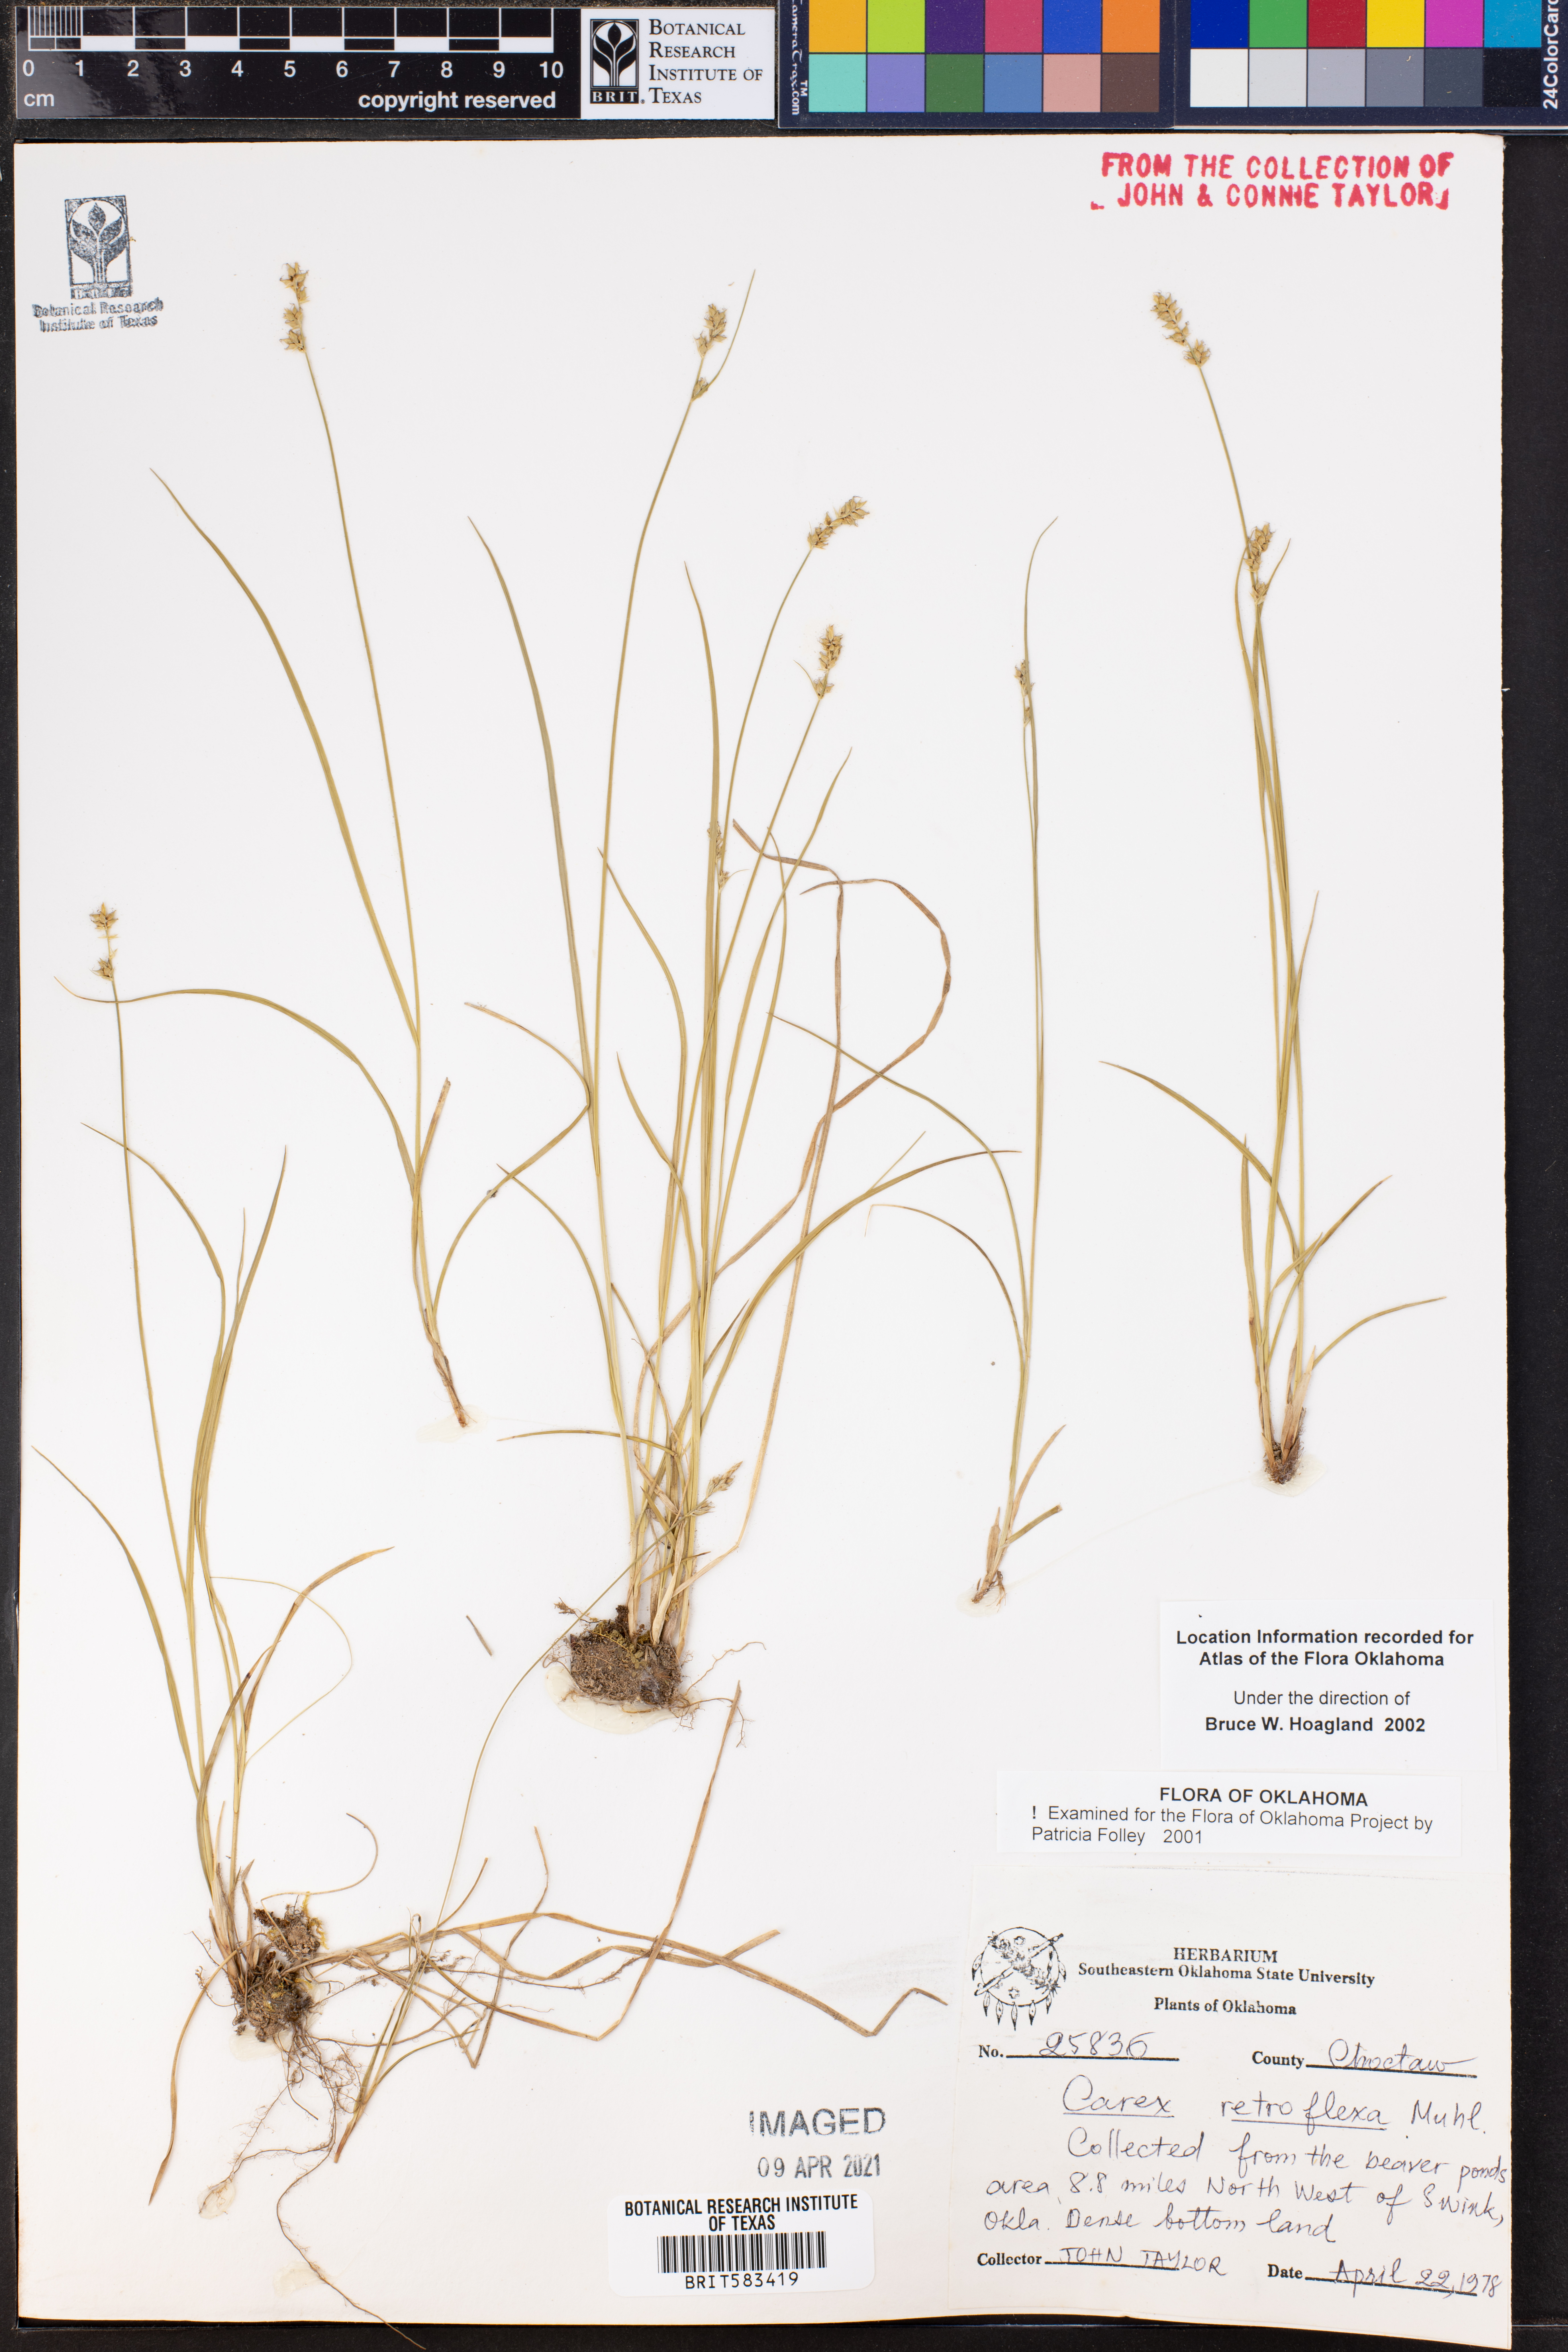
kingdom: Plantae
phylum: Tracheophyta
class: Liliopsida
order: Poales
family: Cyperaceae
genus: Carex
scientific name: Carex retroflexa
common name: Reflexed sedge
